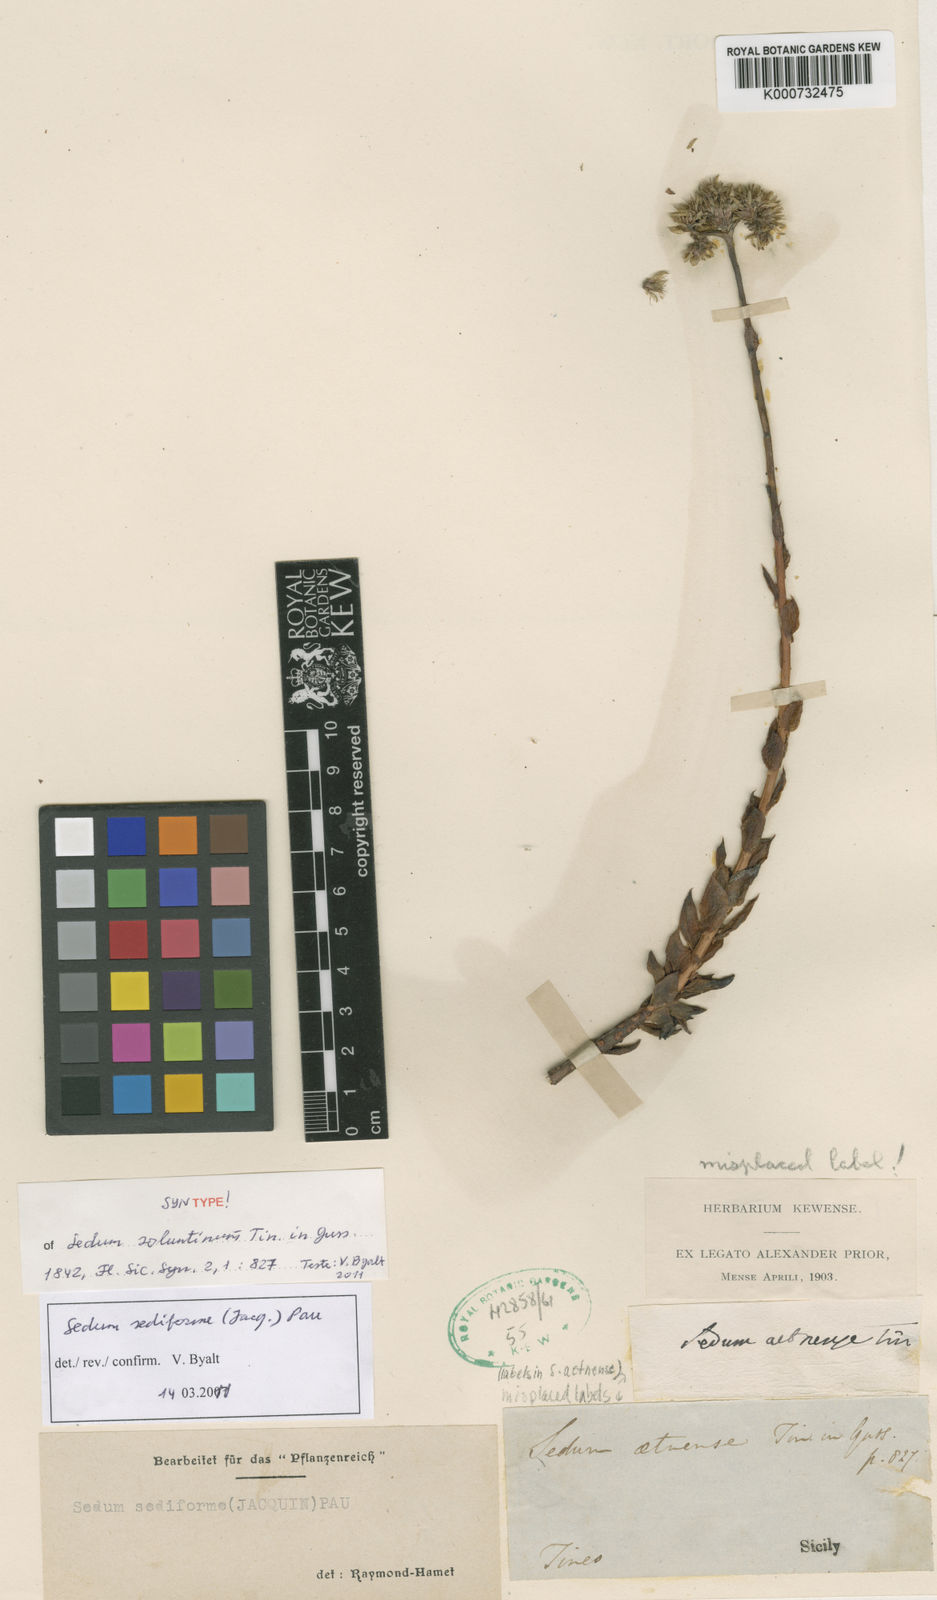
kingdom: Plantae
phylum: Tracheophyta
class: Magnoliopsida
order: Saxifragales
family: Crassulaceae
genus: Petrosedum
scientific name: Petrosedum sediforme
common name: Pale stonecrop
